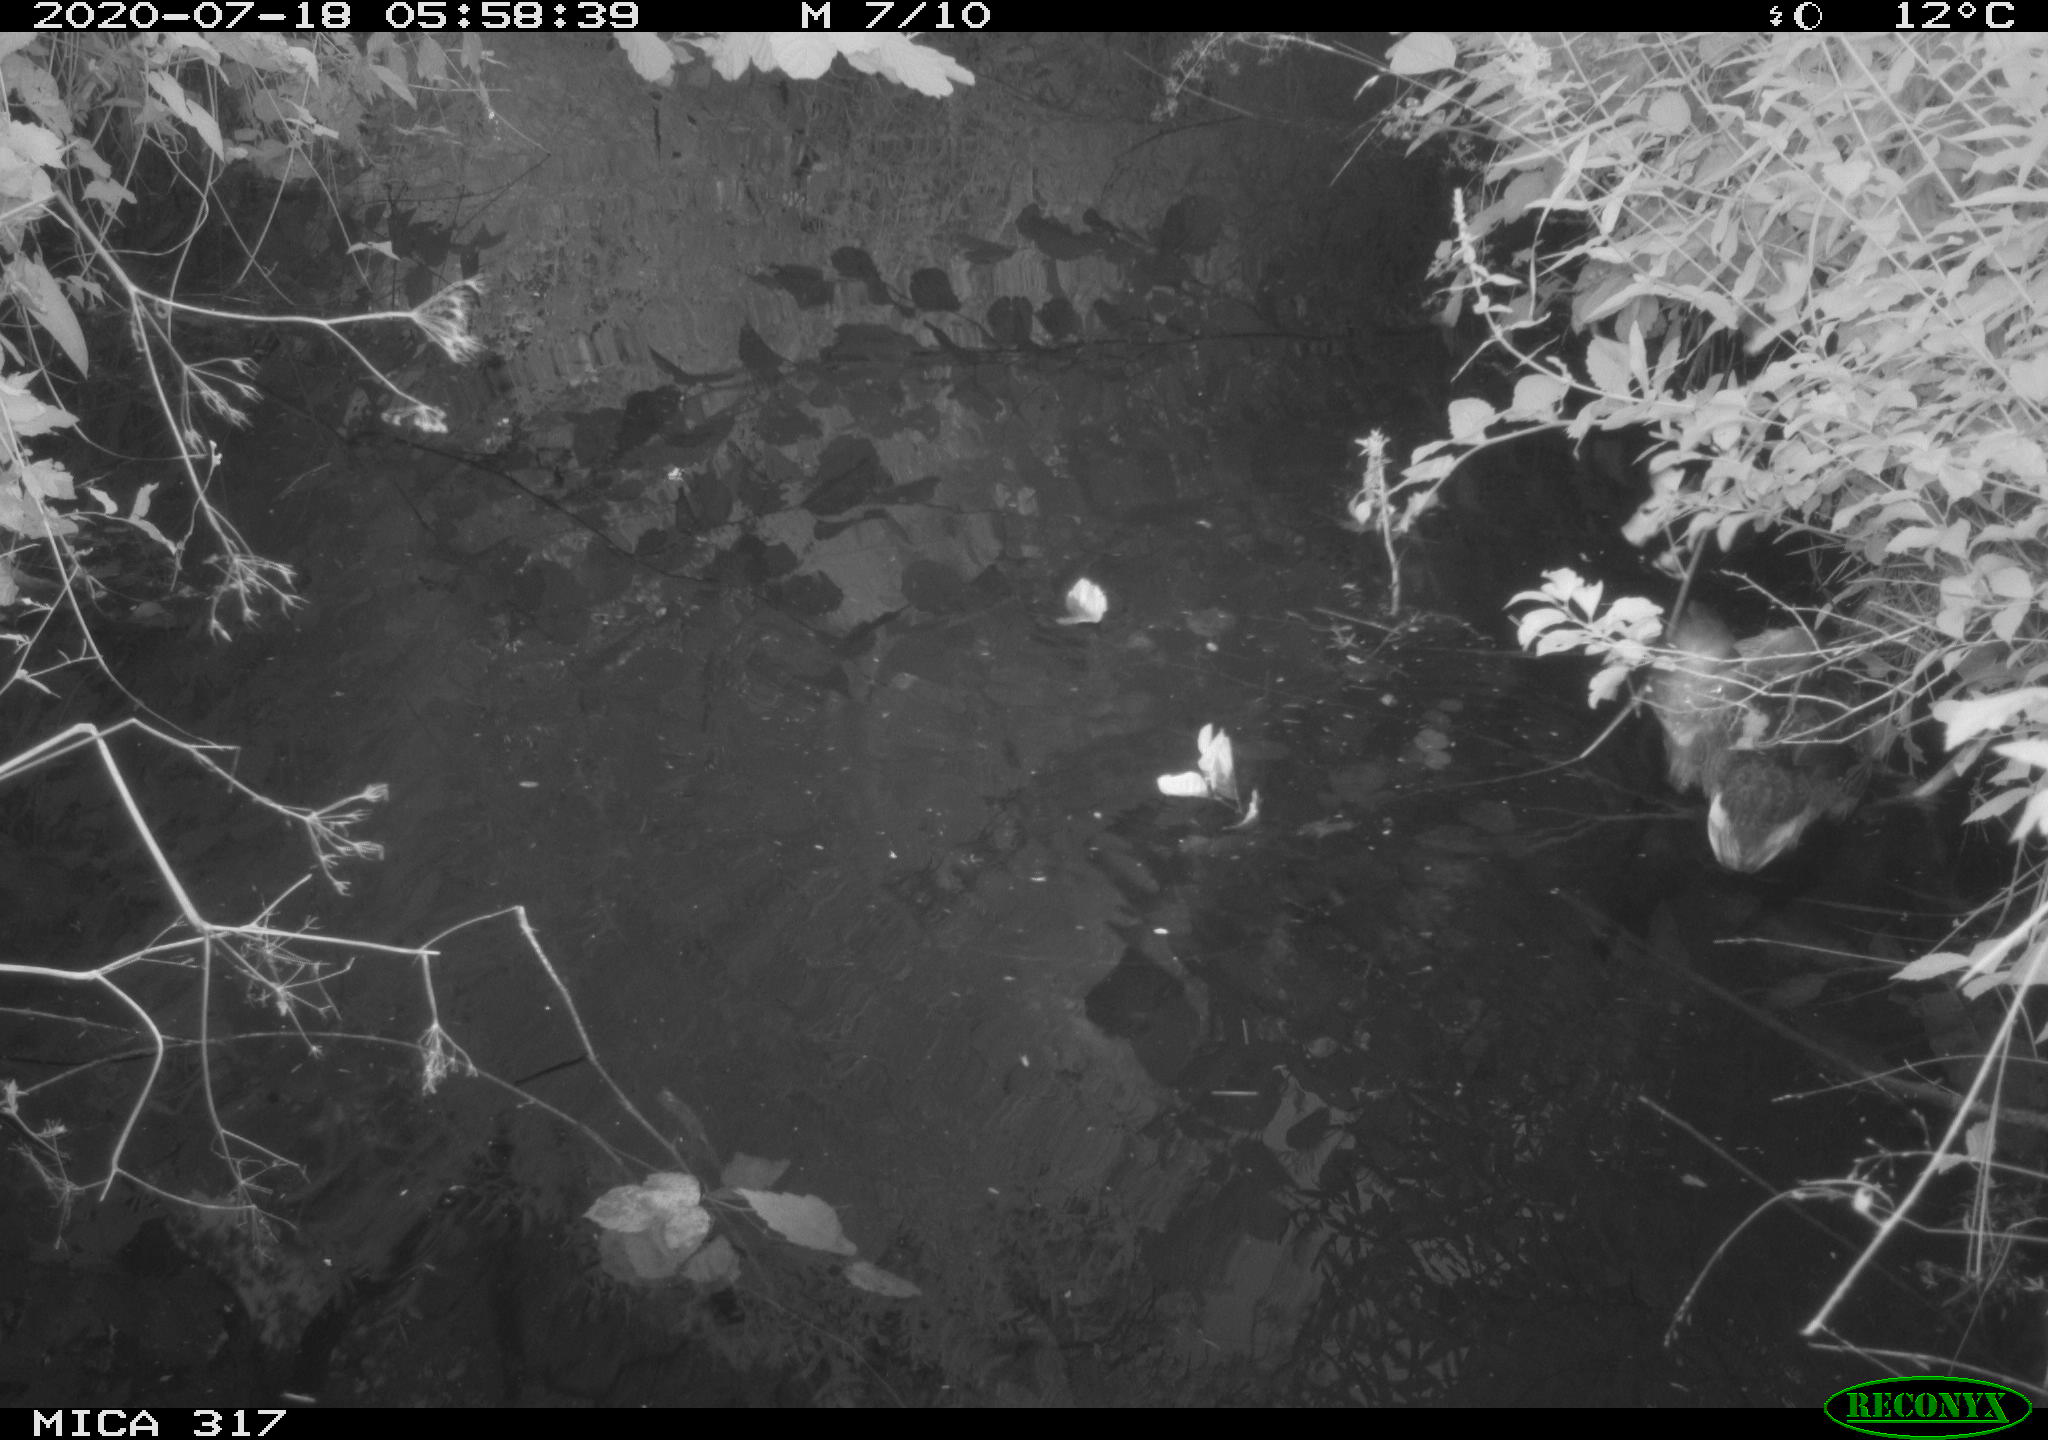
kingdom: Animalia
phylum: Chordata
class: Aves
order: Anseriformes
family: Anatidae
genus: Anas
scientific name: Anas platyrhynchos
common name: Mallard
